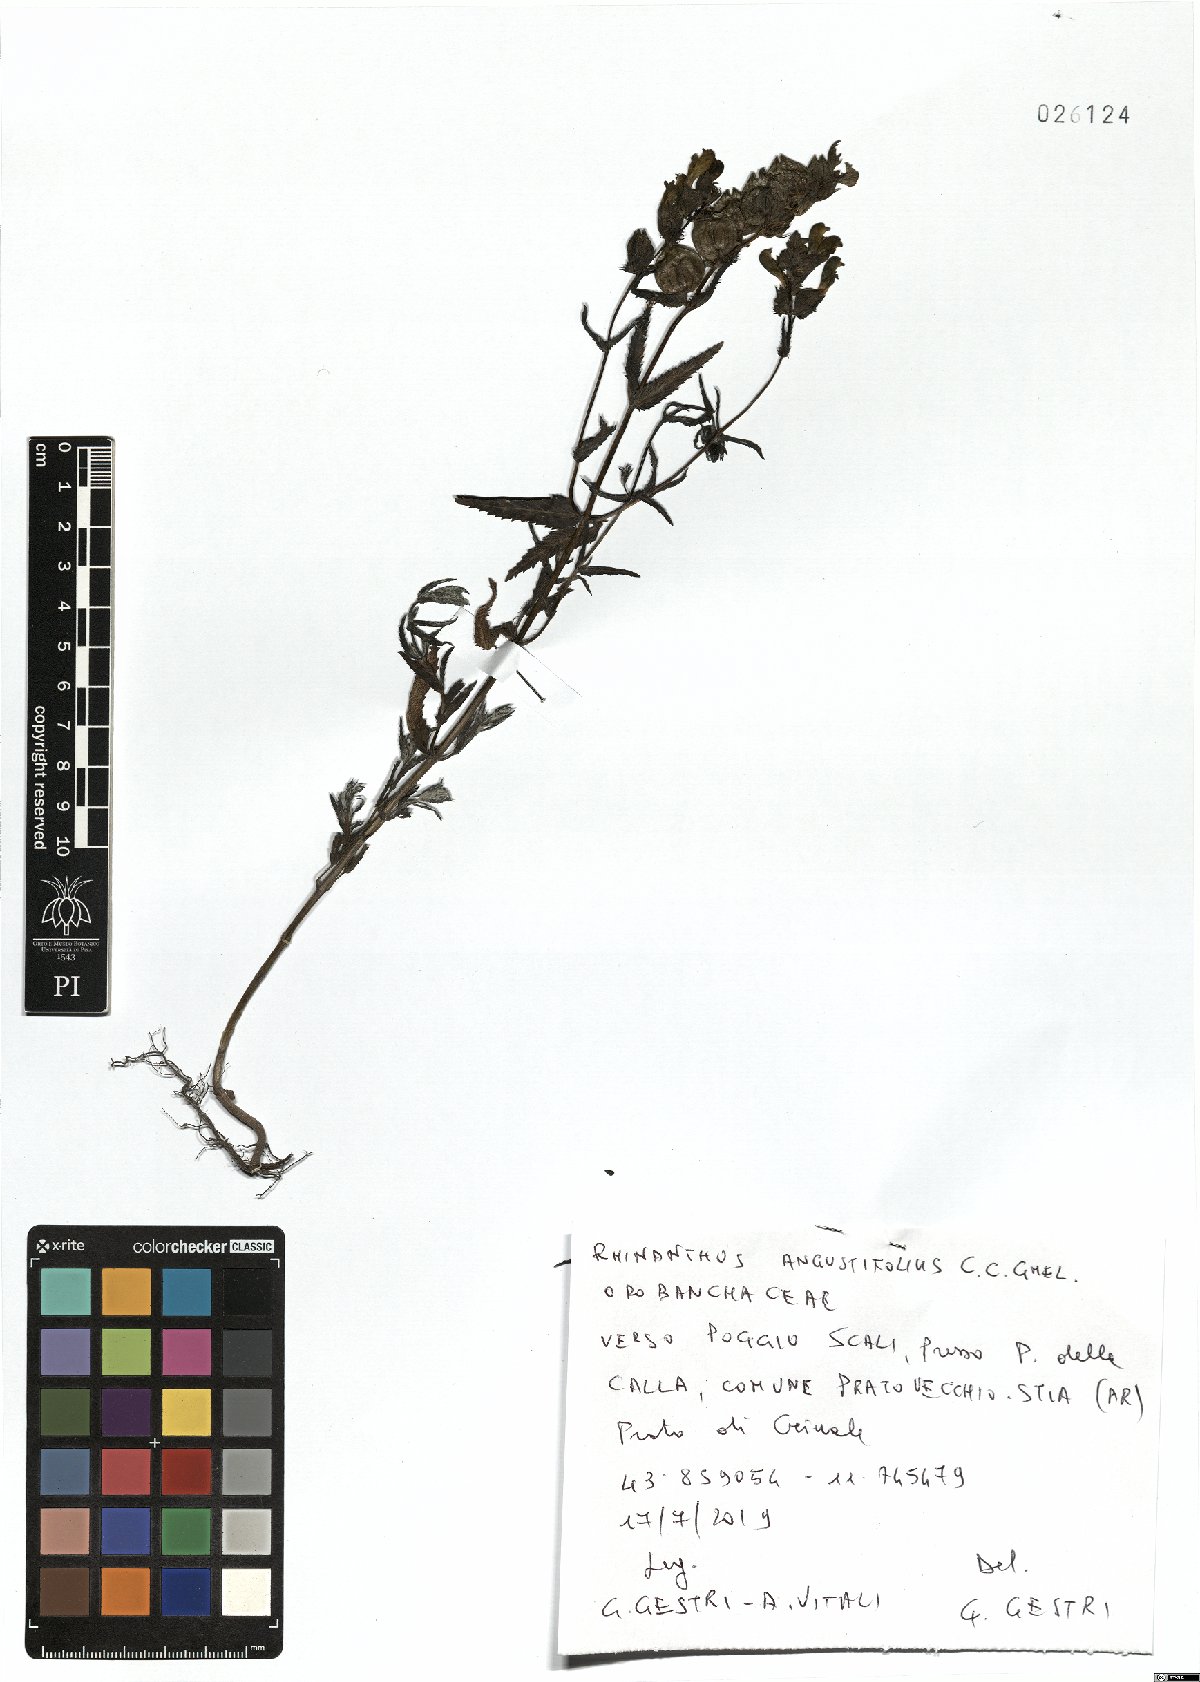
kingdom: Plantae
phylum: Tracheophyta
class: Magnoliopsida
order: Lamiales
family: Orobanchaceae
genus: Rhinanthus
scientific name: Rhinanthus
